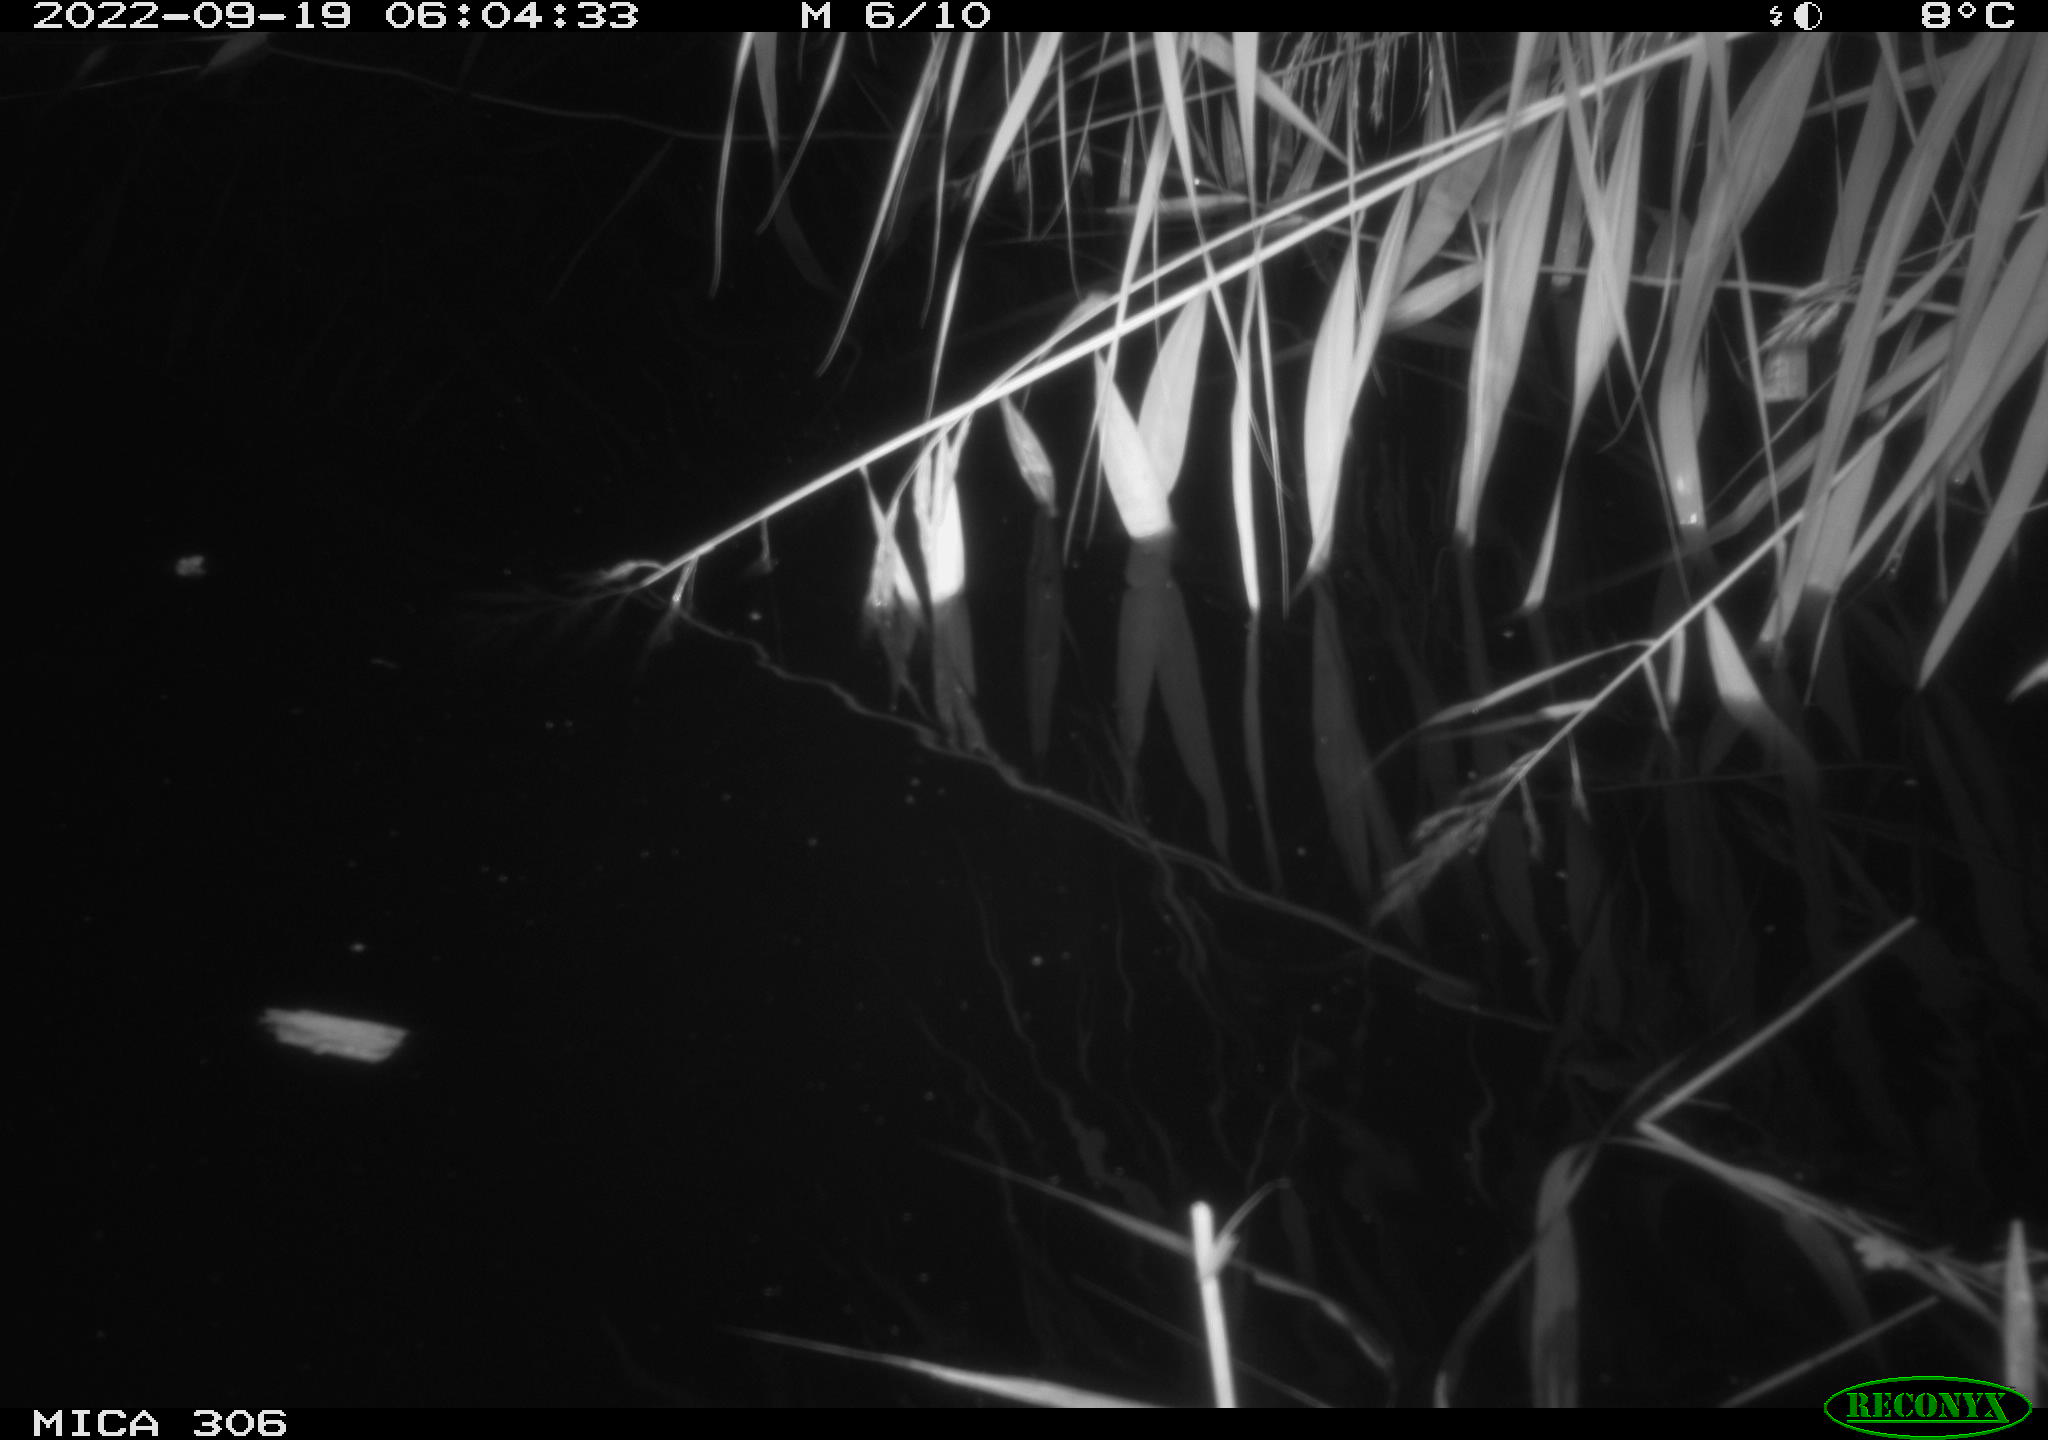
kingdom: Animalia
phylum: Chordata
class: Mammalia
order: Rodentia
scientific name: Rodentia
